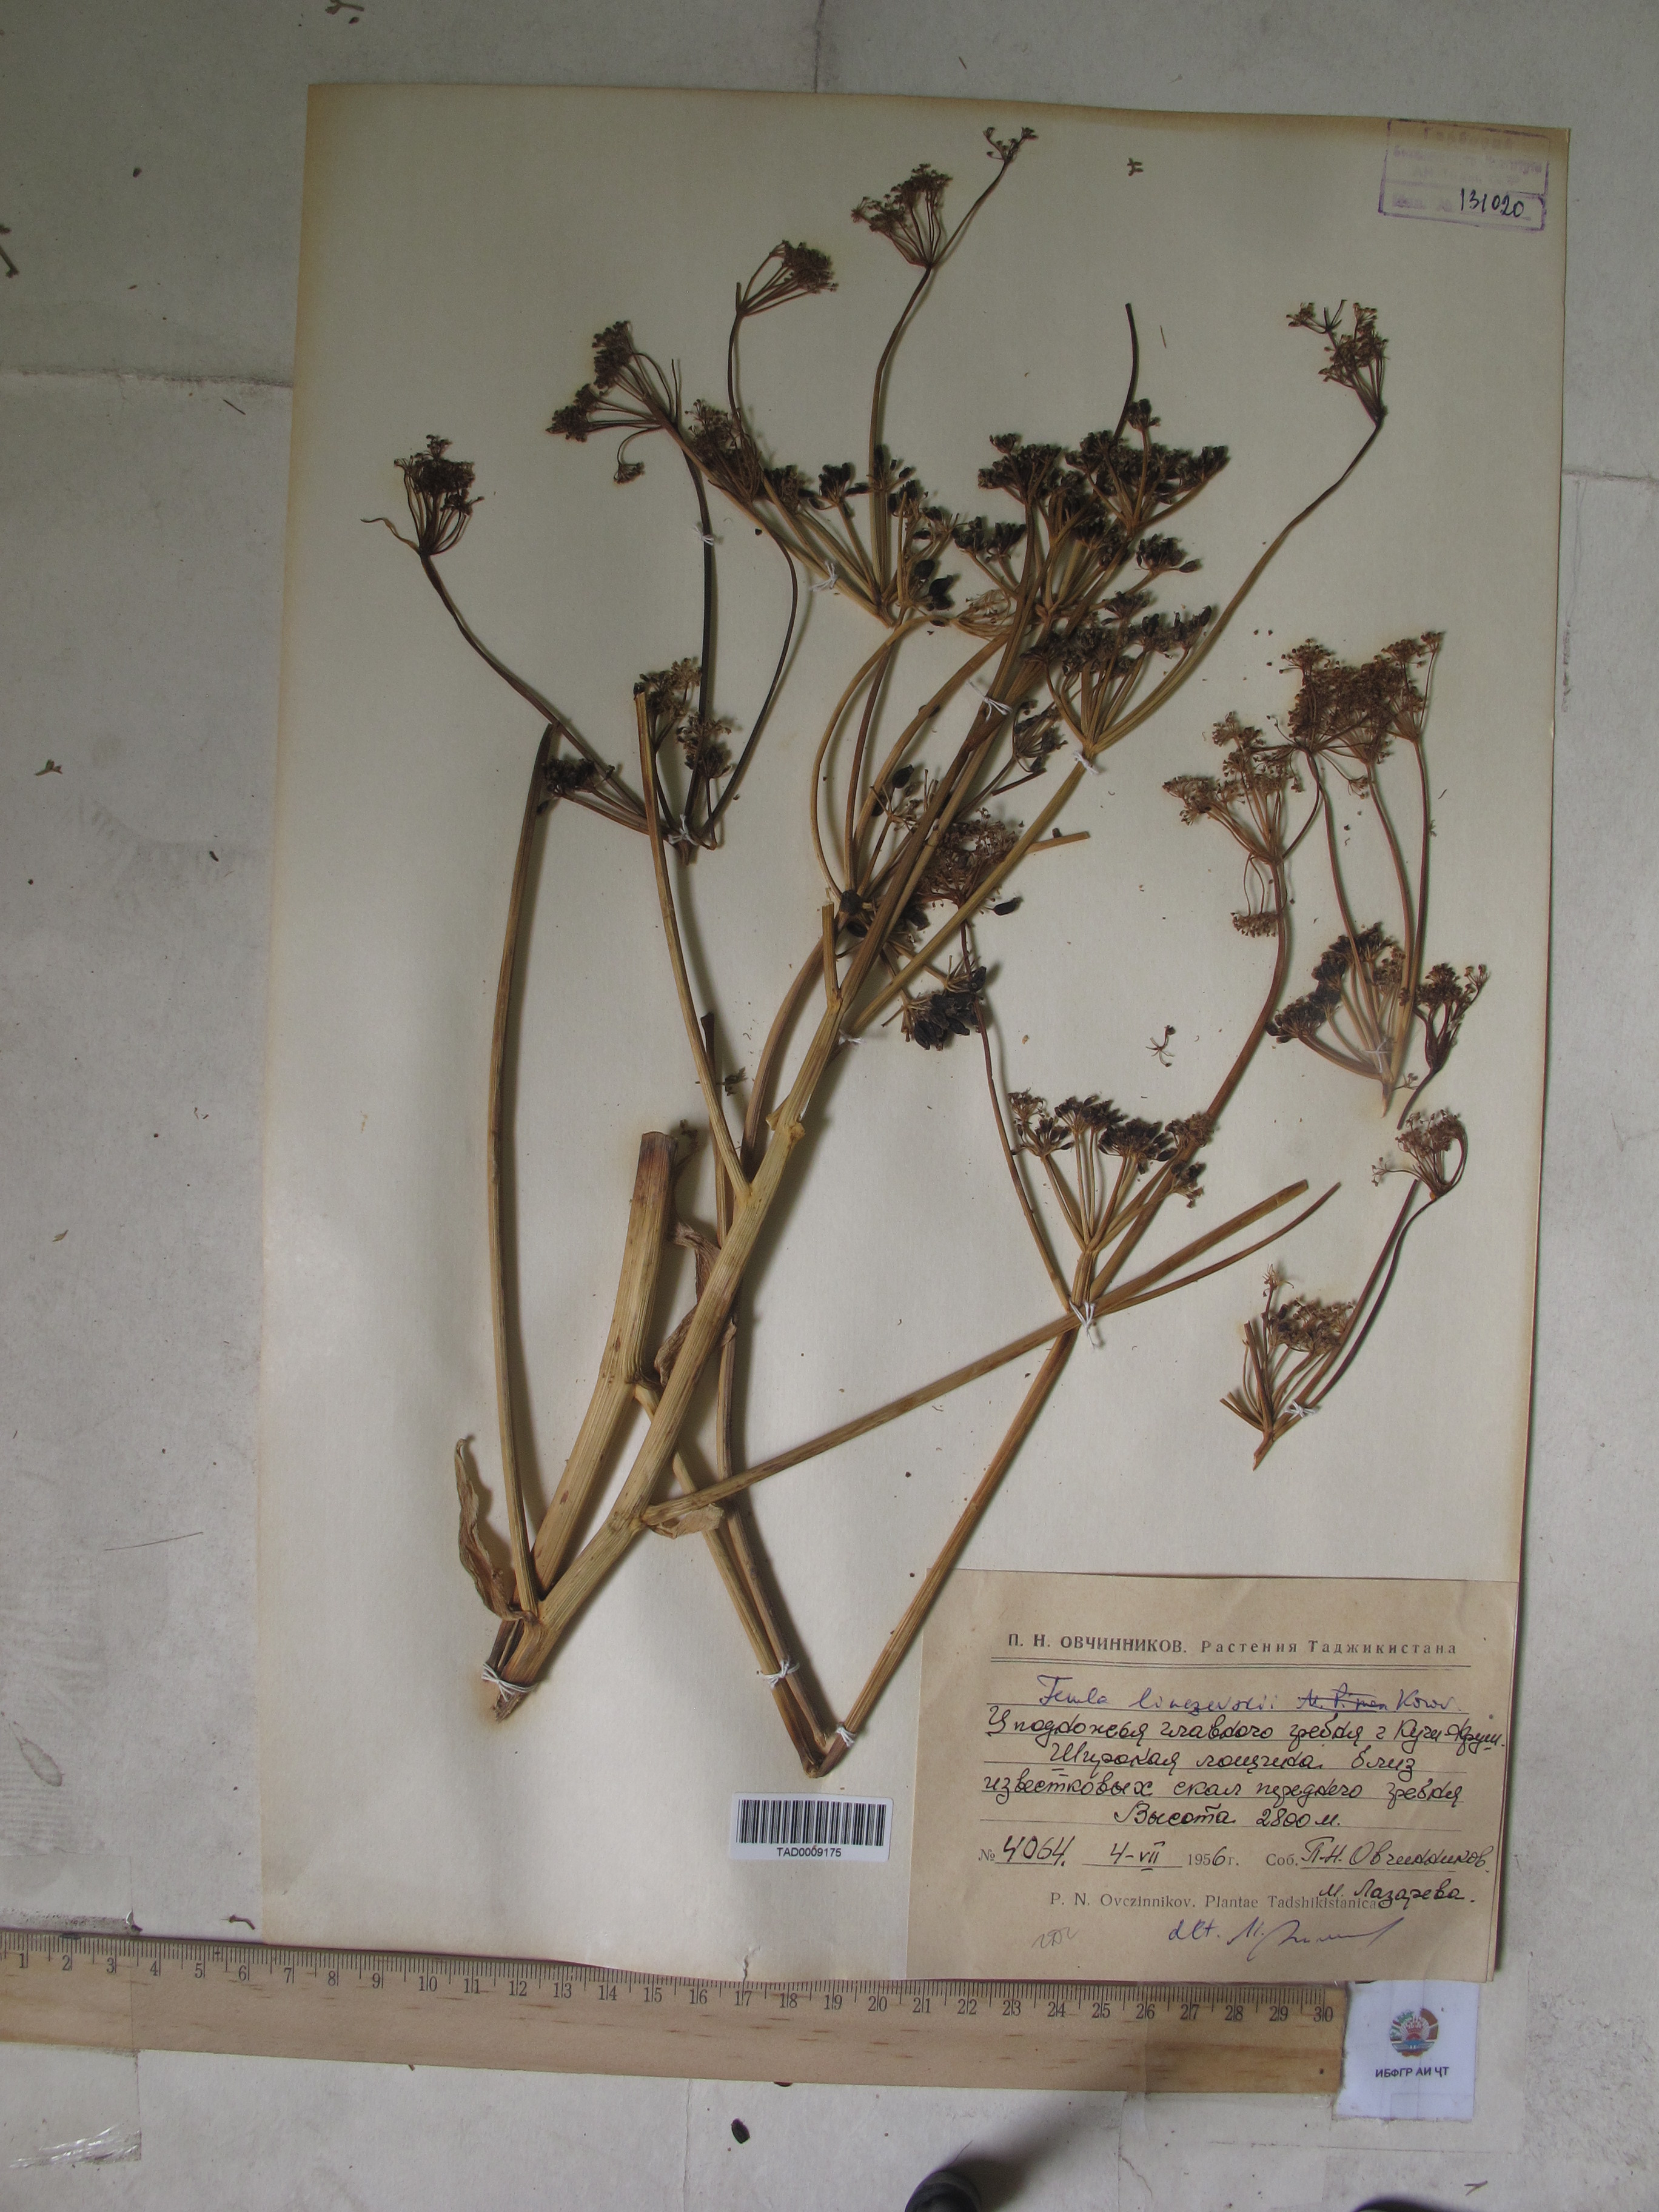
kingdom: Plantae
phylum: Tracheophyta
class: Magnoliopsida
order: Apiales
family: Apiaceae
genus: Ferula
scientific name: Ferula linczevskii
